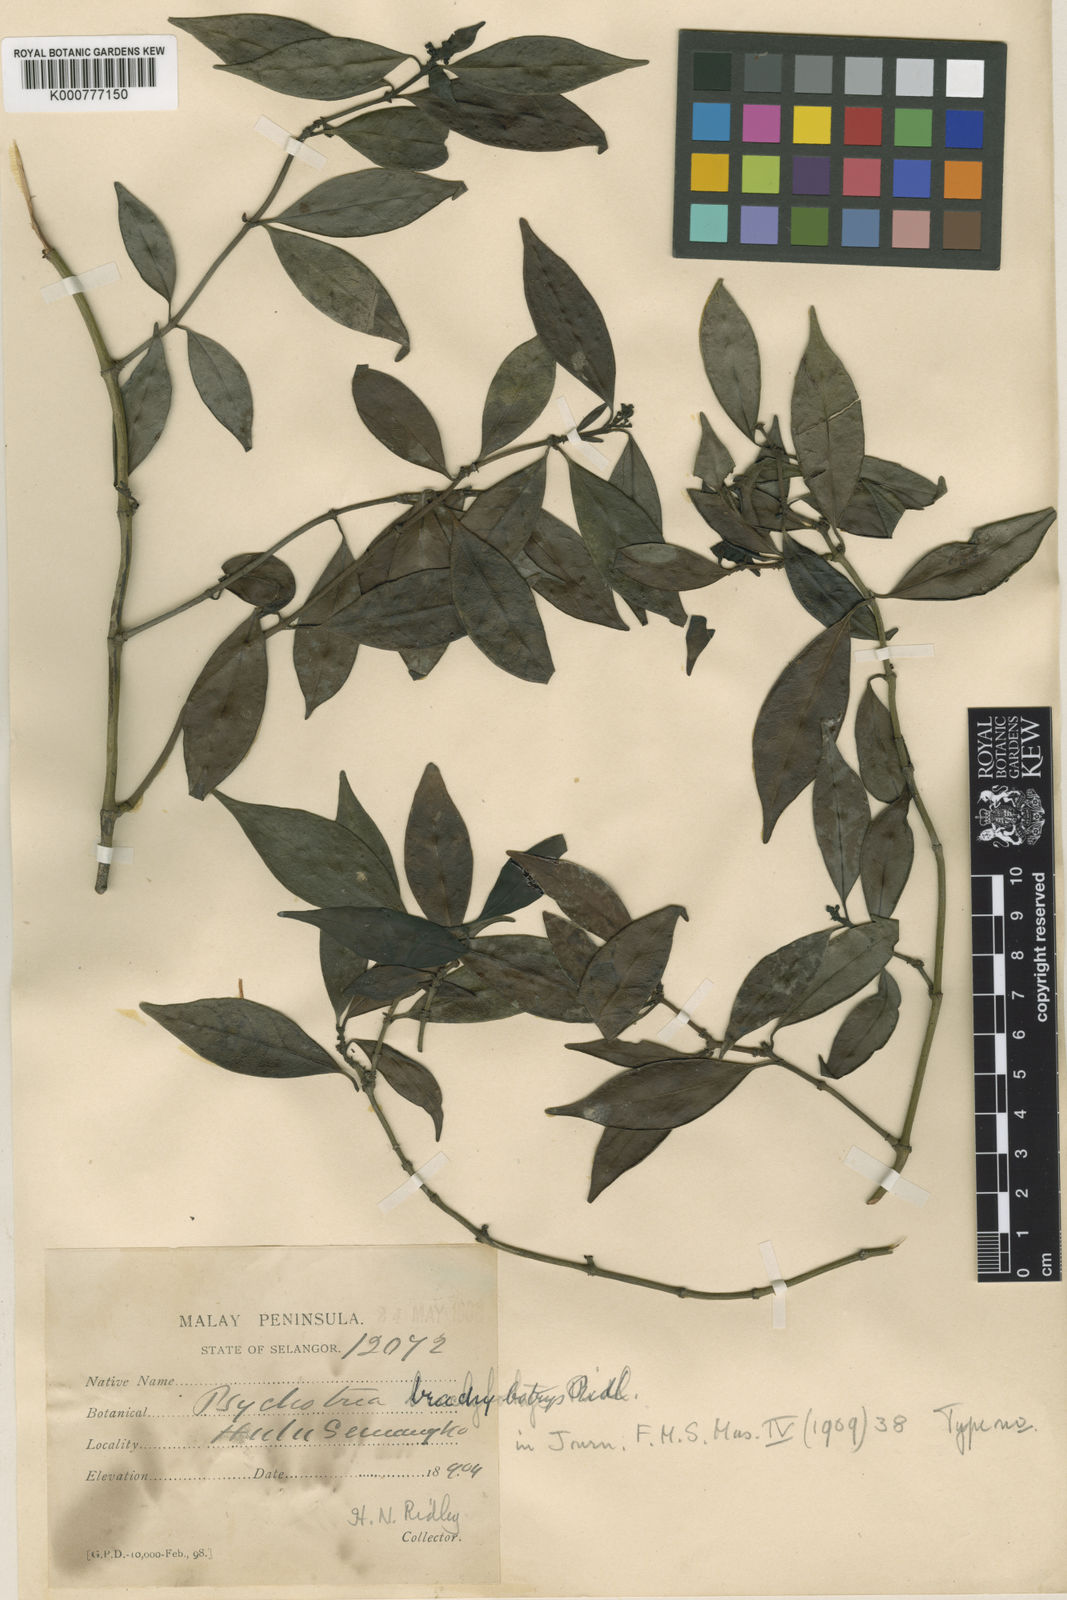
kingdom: Plantae
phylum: Tracheophyta
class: Magnoliopsida
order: Gentianales
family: Rubiaceae
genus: Psychotria
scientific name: Psychotria tahanensis
